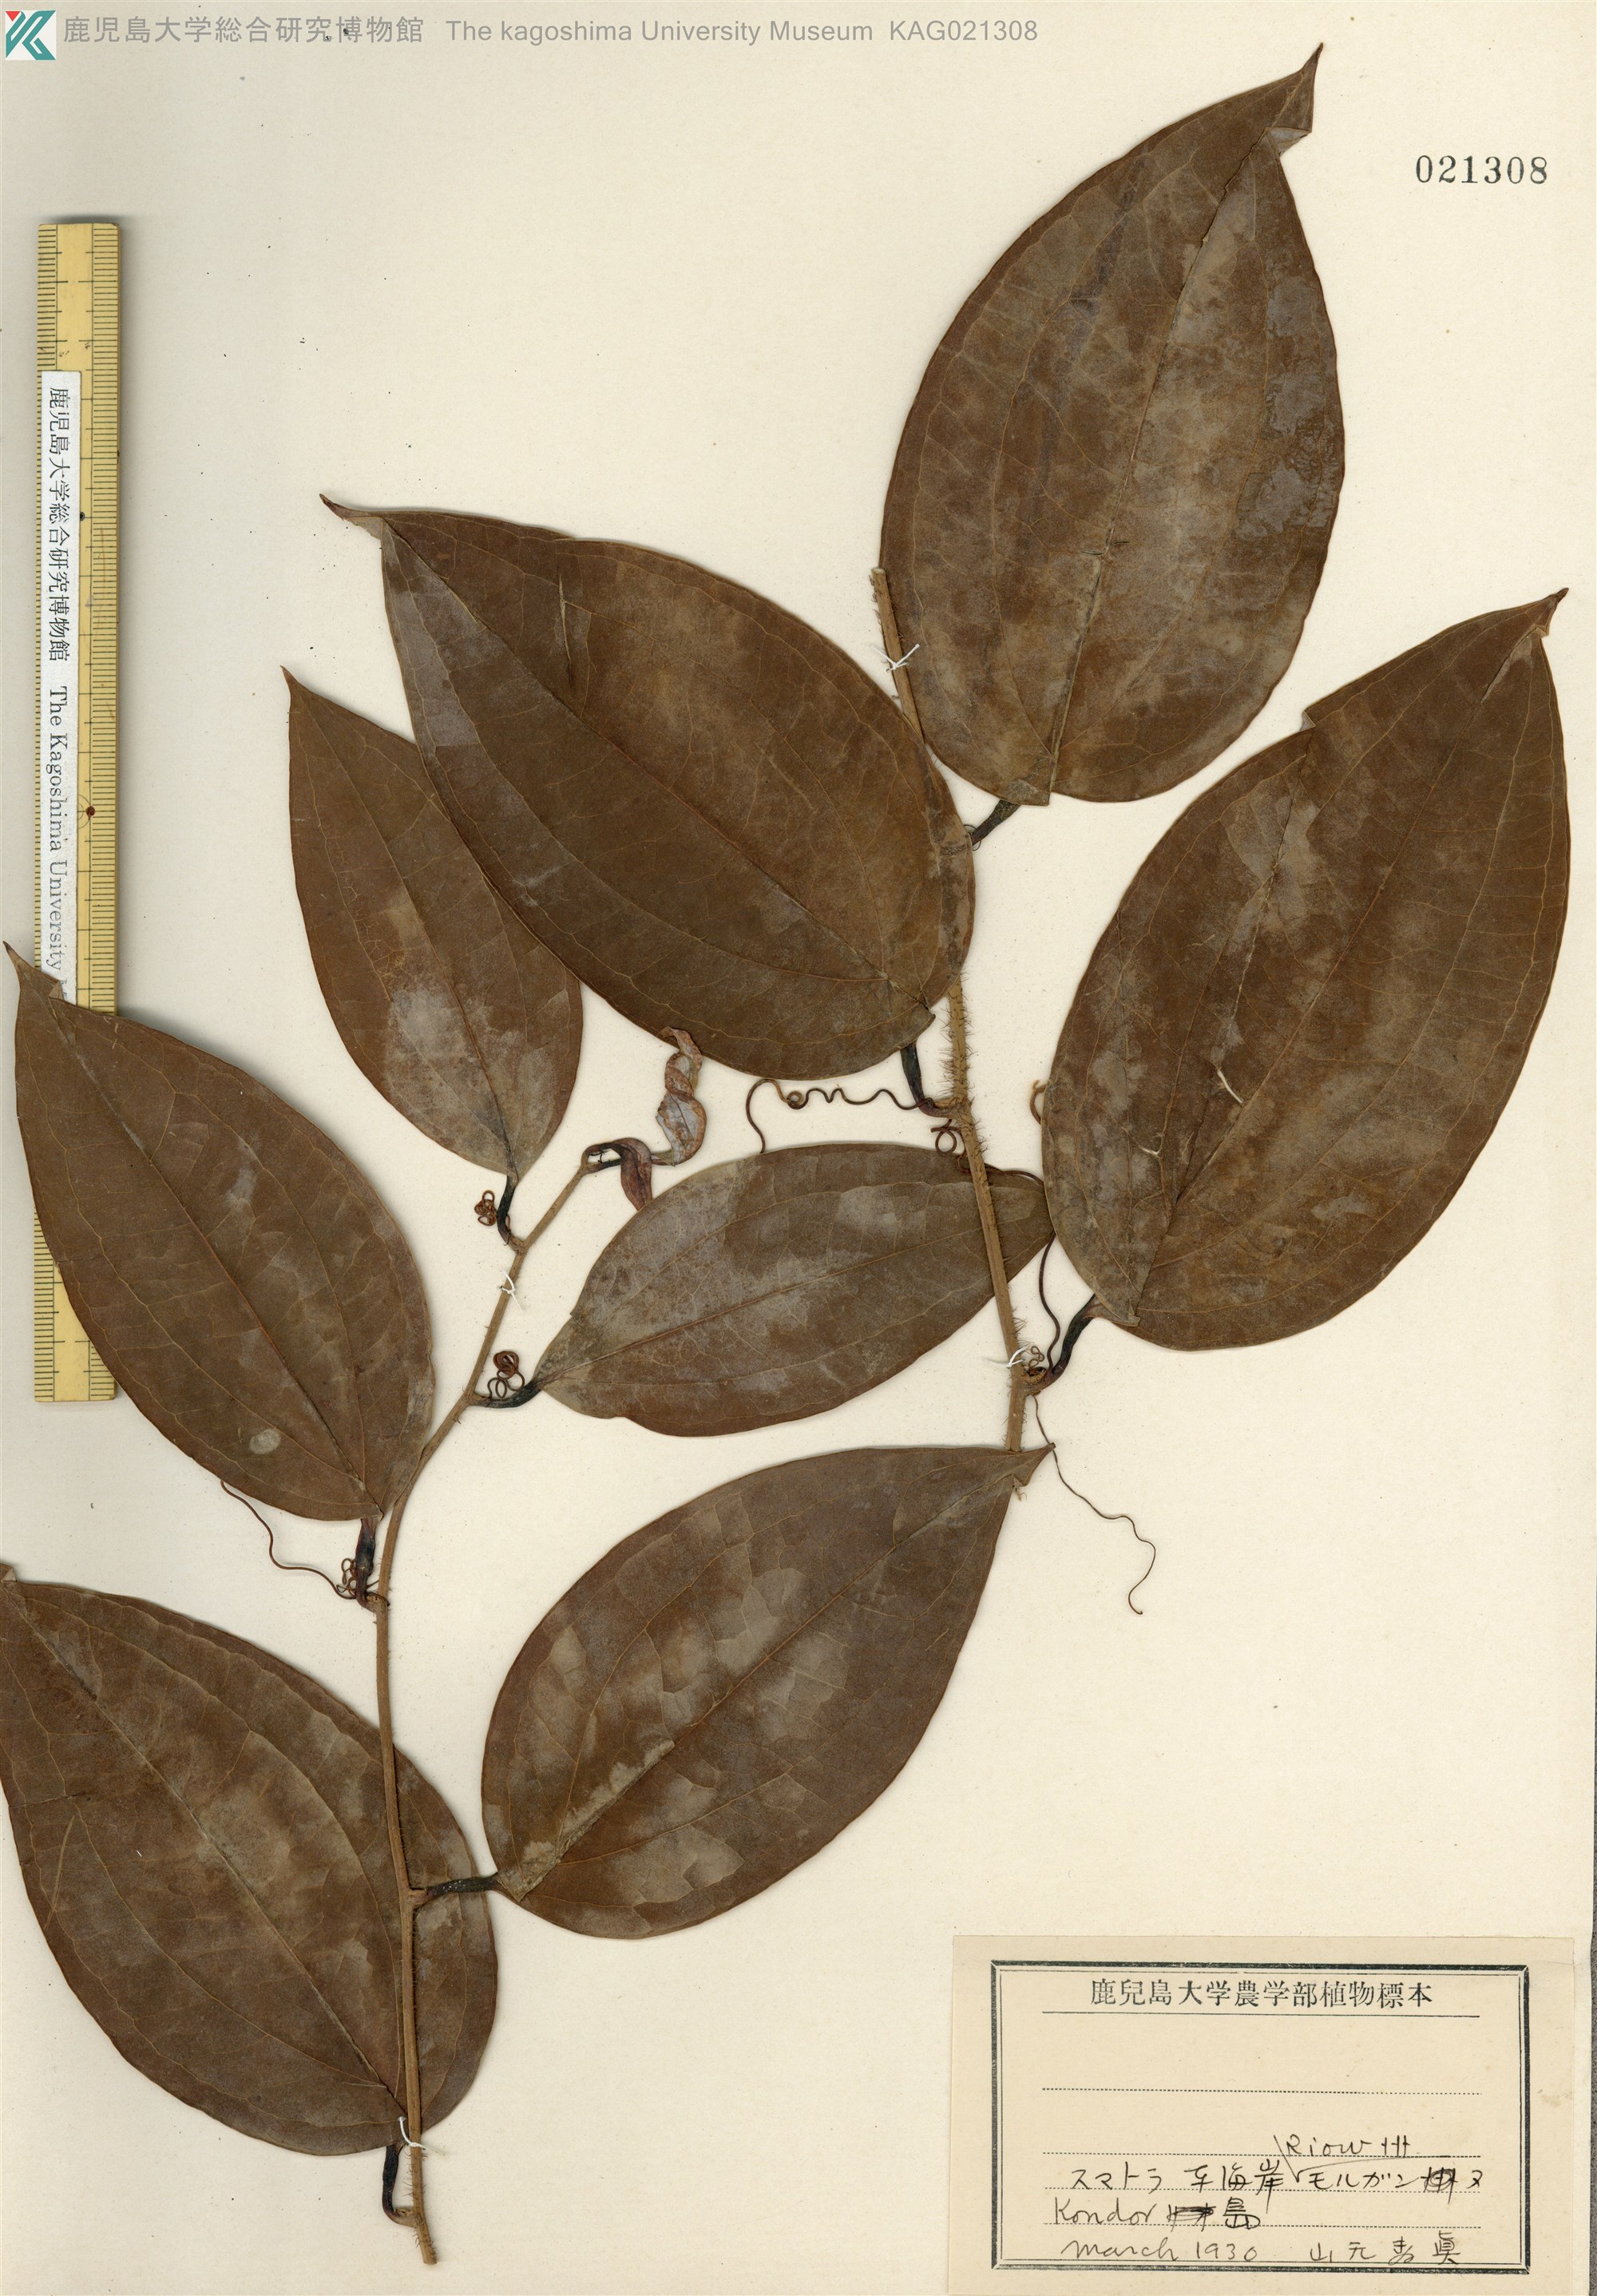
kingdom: Plantae
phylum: Tracheophyta
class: Liliopsida
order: Liliales
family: Smilacaceae
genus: Smilax
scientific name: Smilax sebeana
